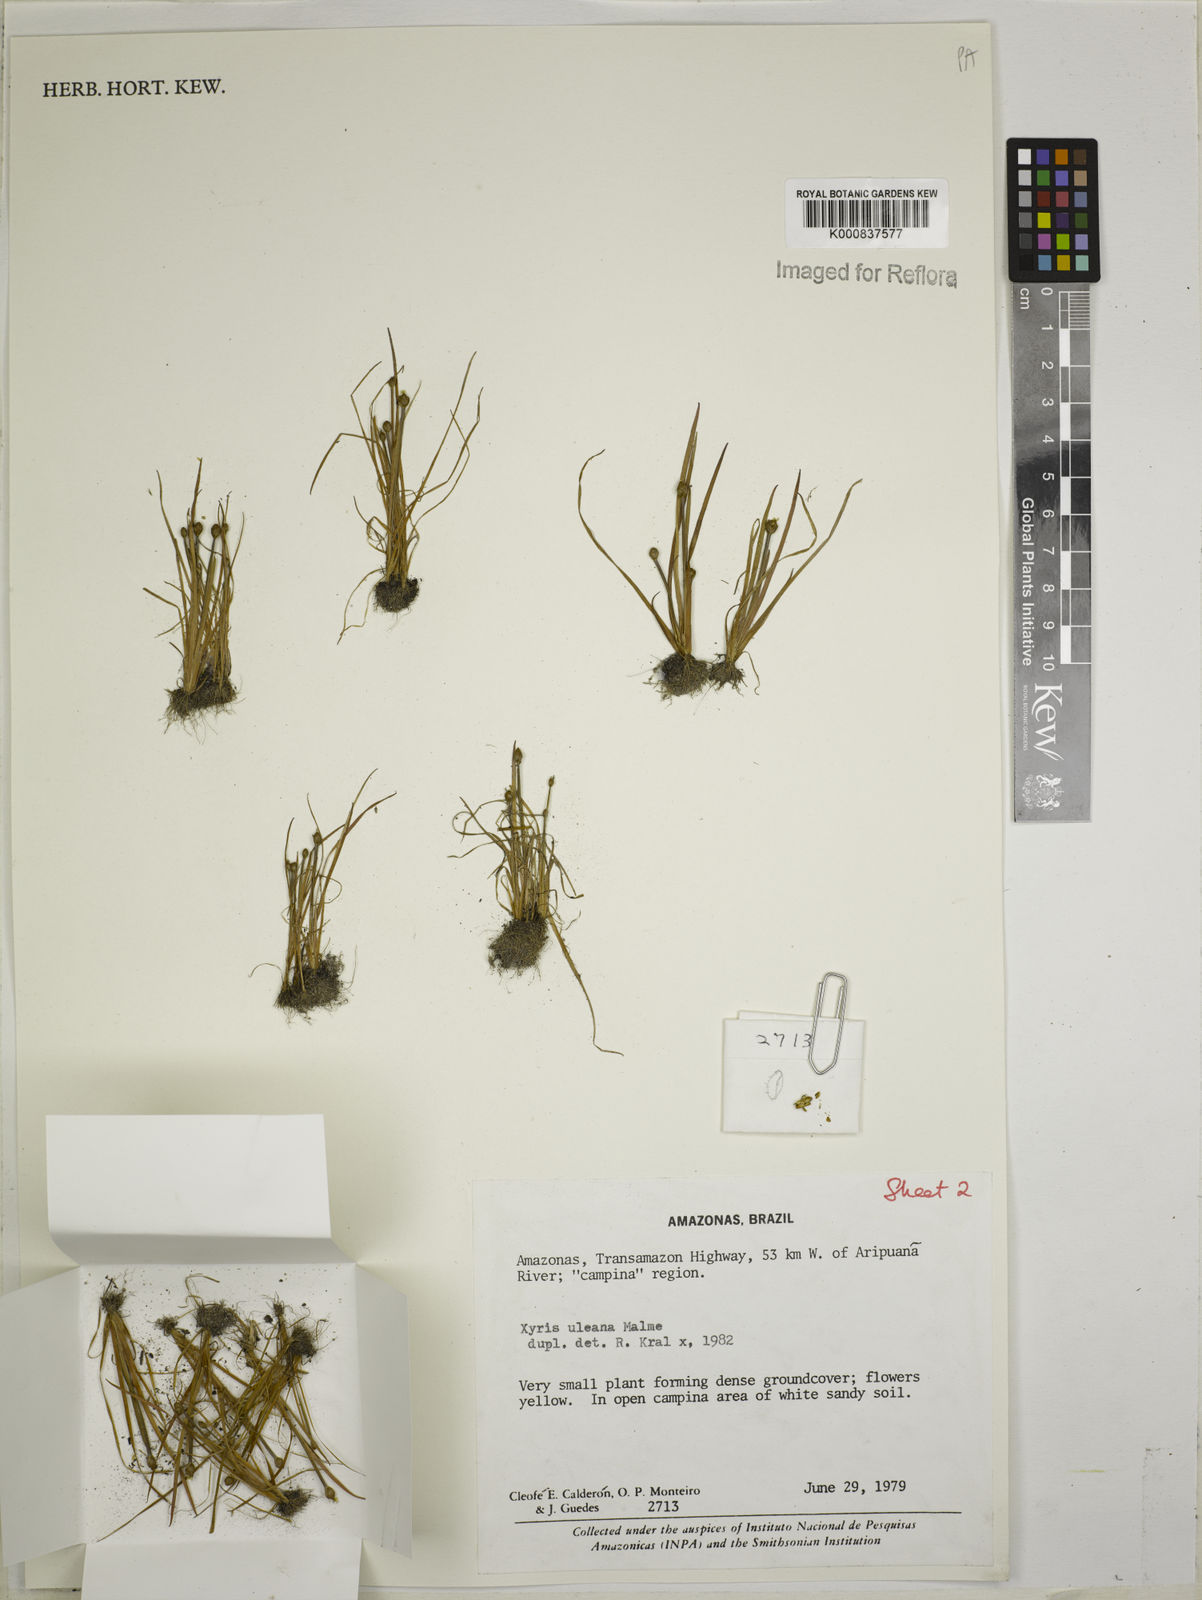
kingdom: Plantae
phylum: Tracheophyta
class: Liliopsida
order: Poales
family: Xyridaceae
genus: Xyris
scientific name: Xyris uleana
